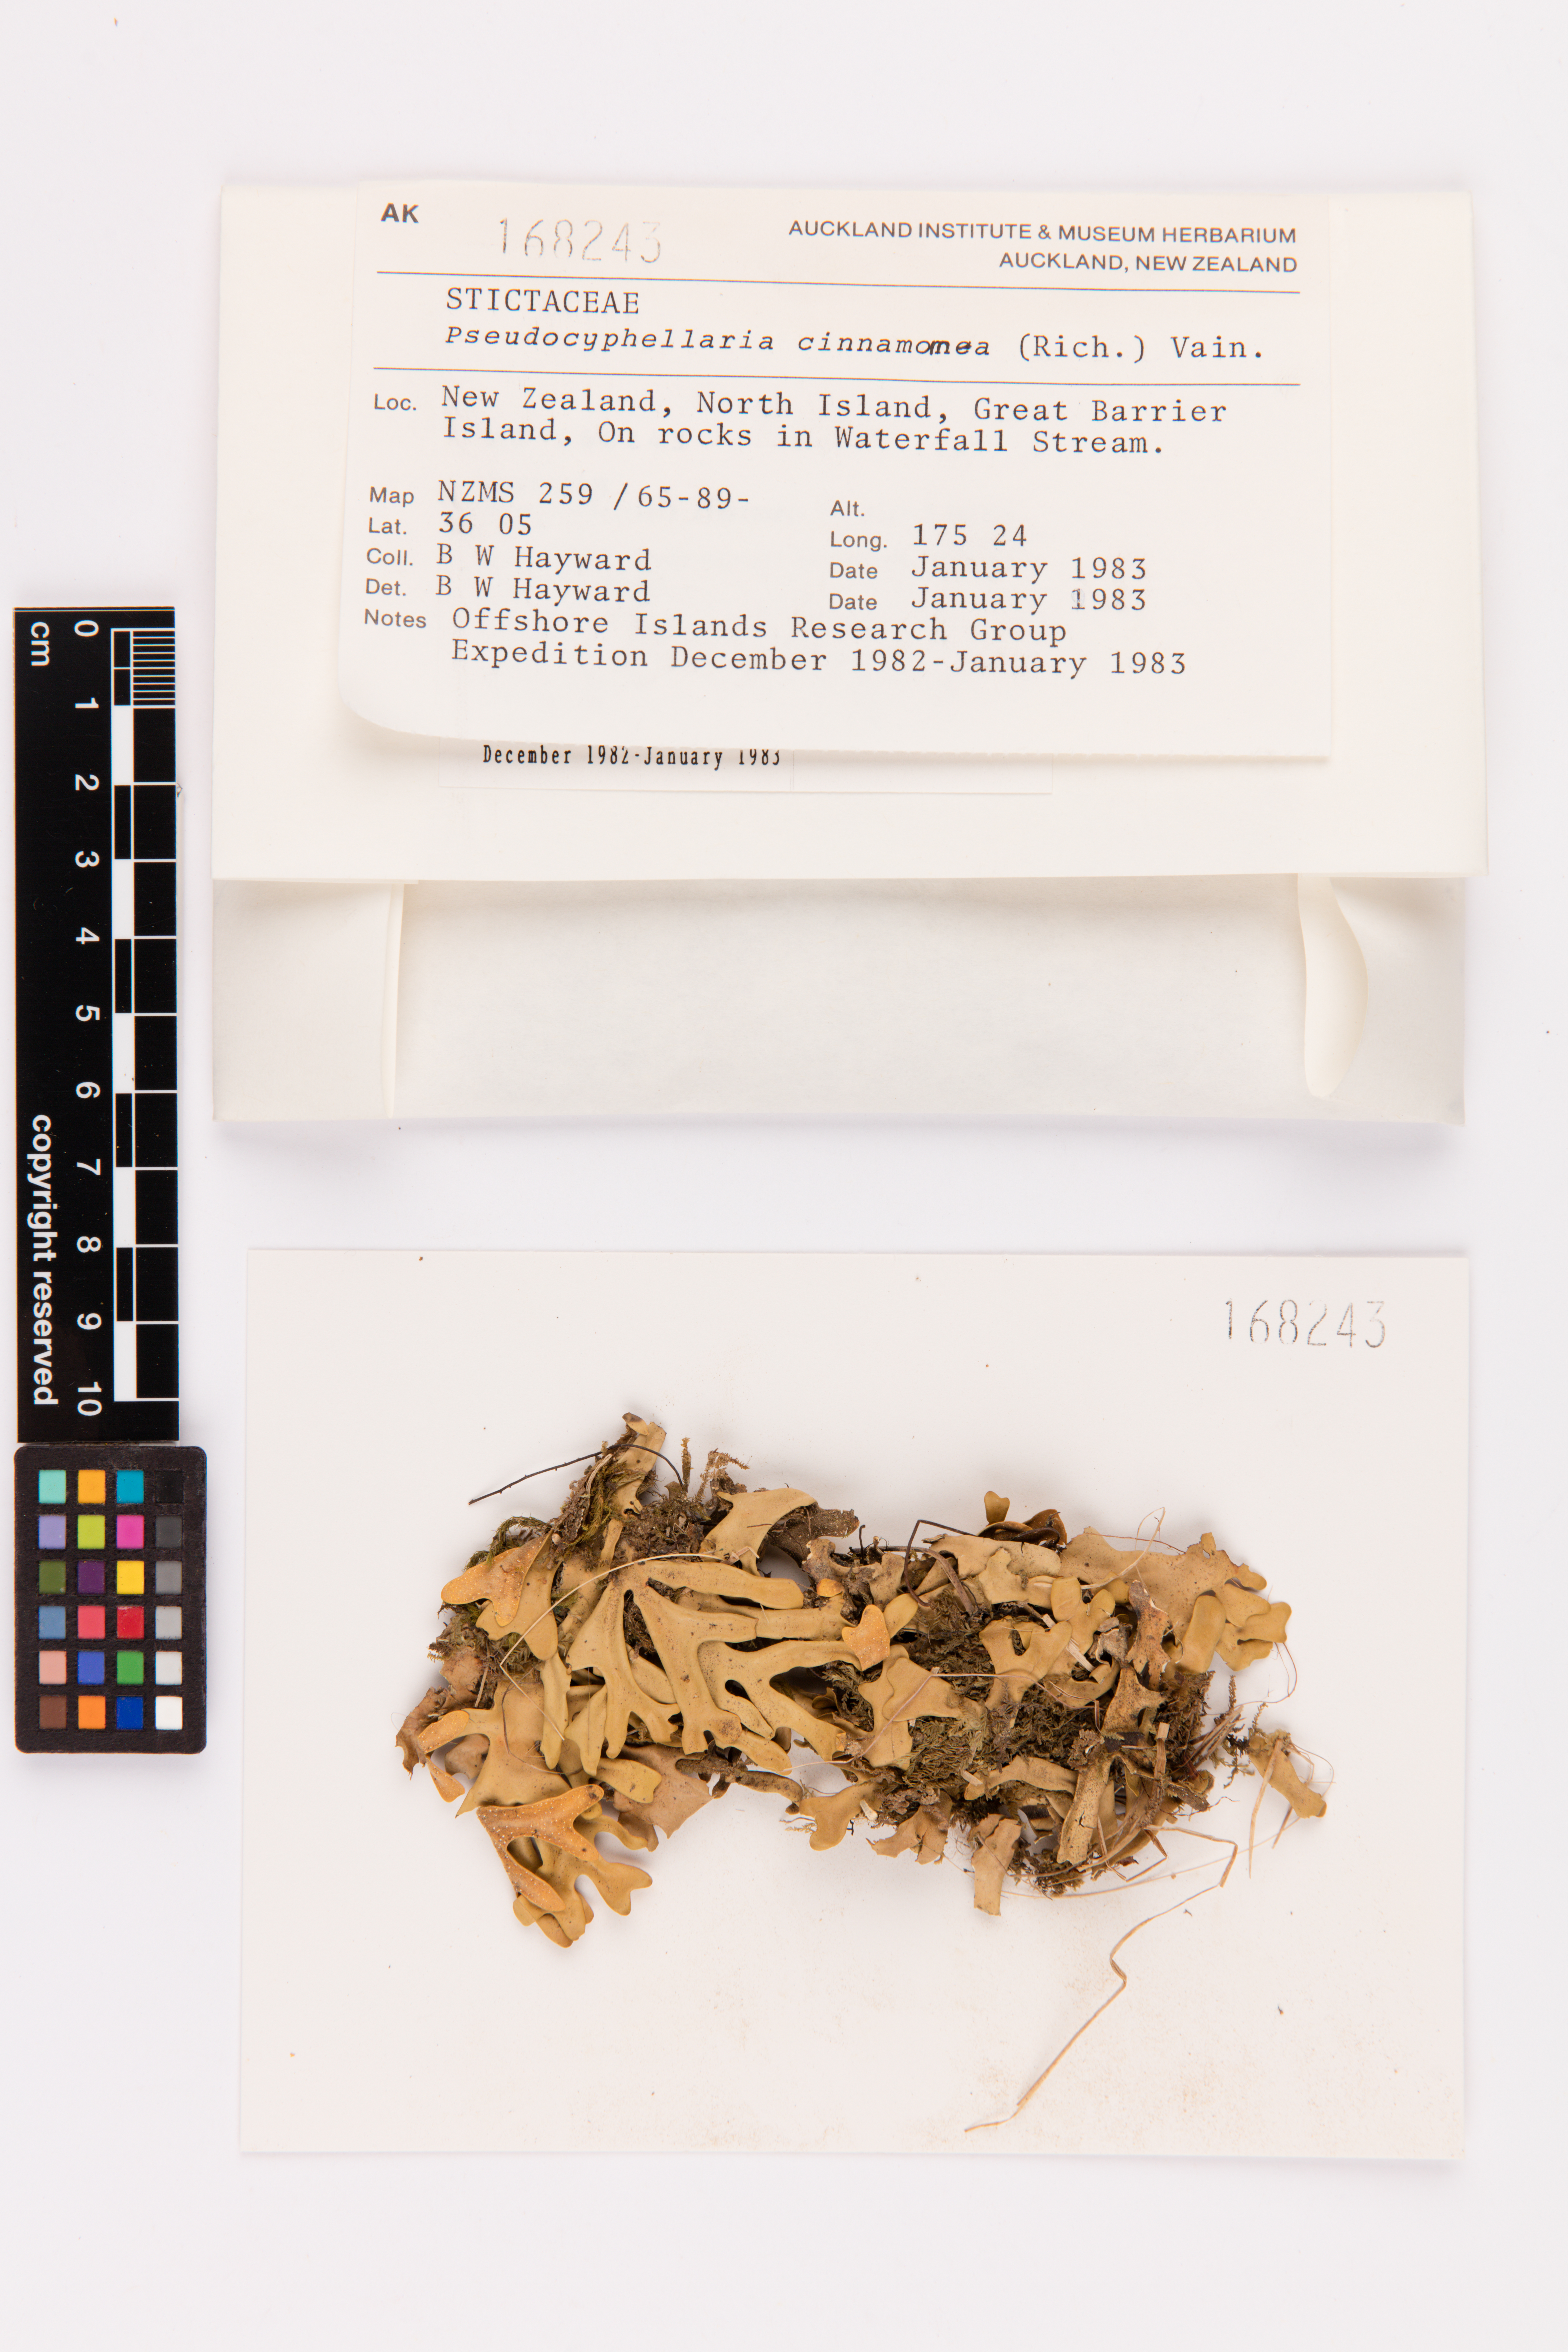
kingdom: Fungi
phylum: Ascomycota
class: Lecanoromycetes
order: Peltigerales
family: Lobariaceae
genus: Pseudocyphellaria
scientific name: Pseudocyphellaria cinnamomea
